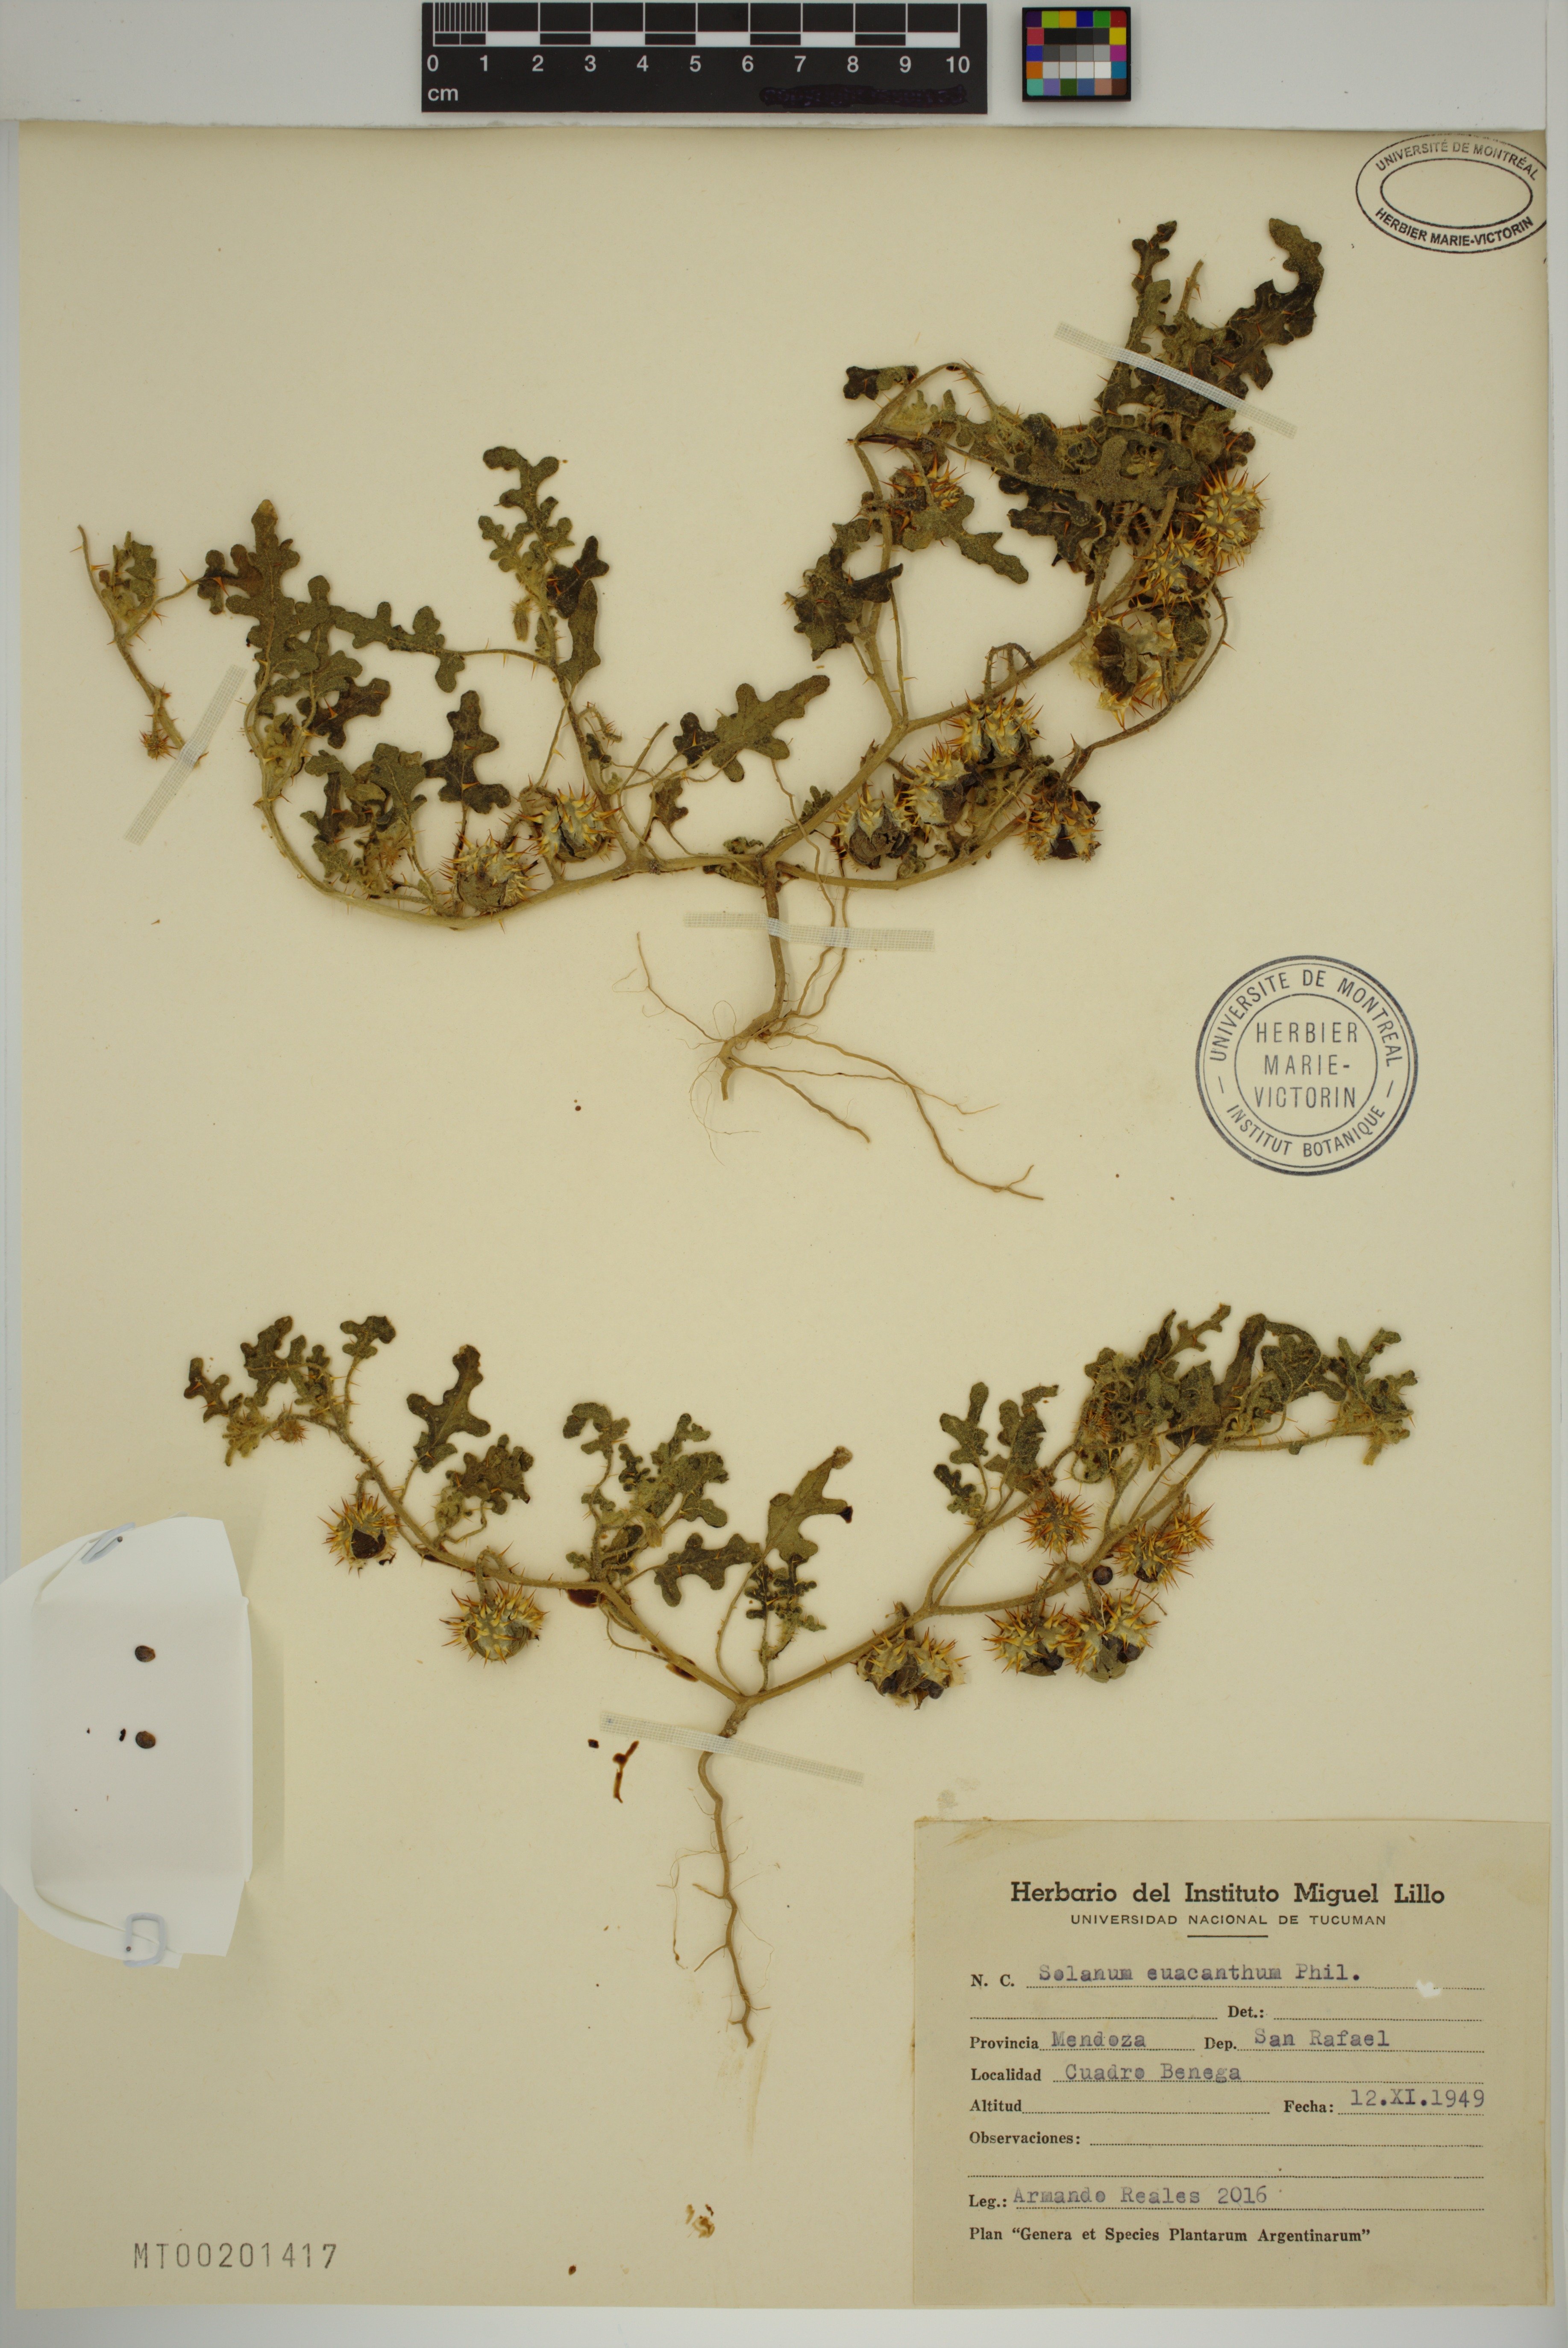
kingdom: Plantae
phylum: Tracheophyta
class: Magnoliopsida
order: Solanales
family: Solanaceae
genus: Solanum
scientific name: Solanum euacanthum
